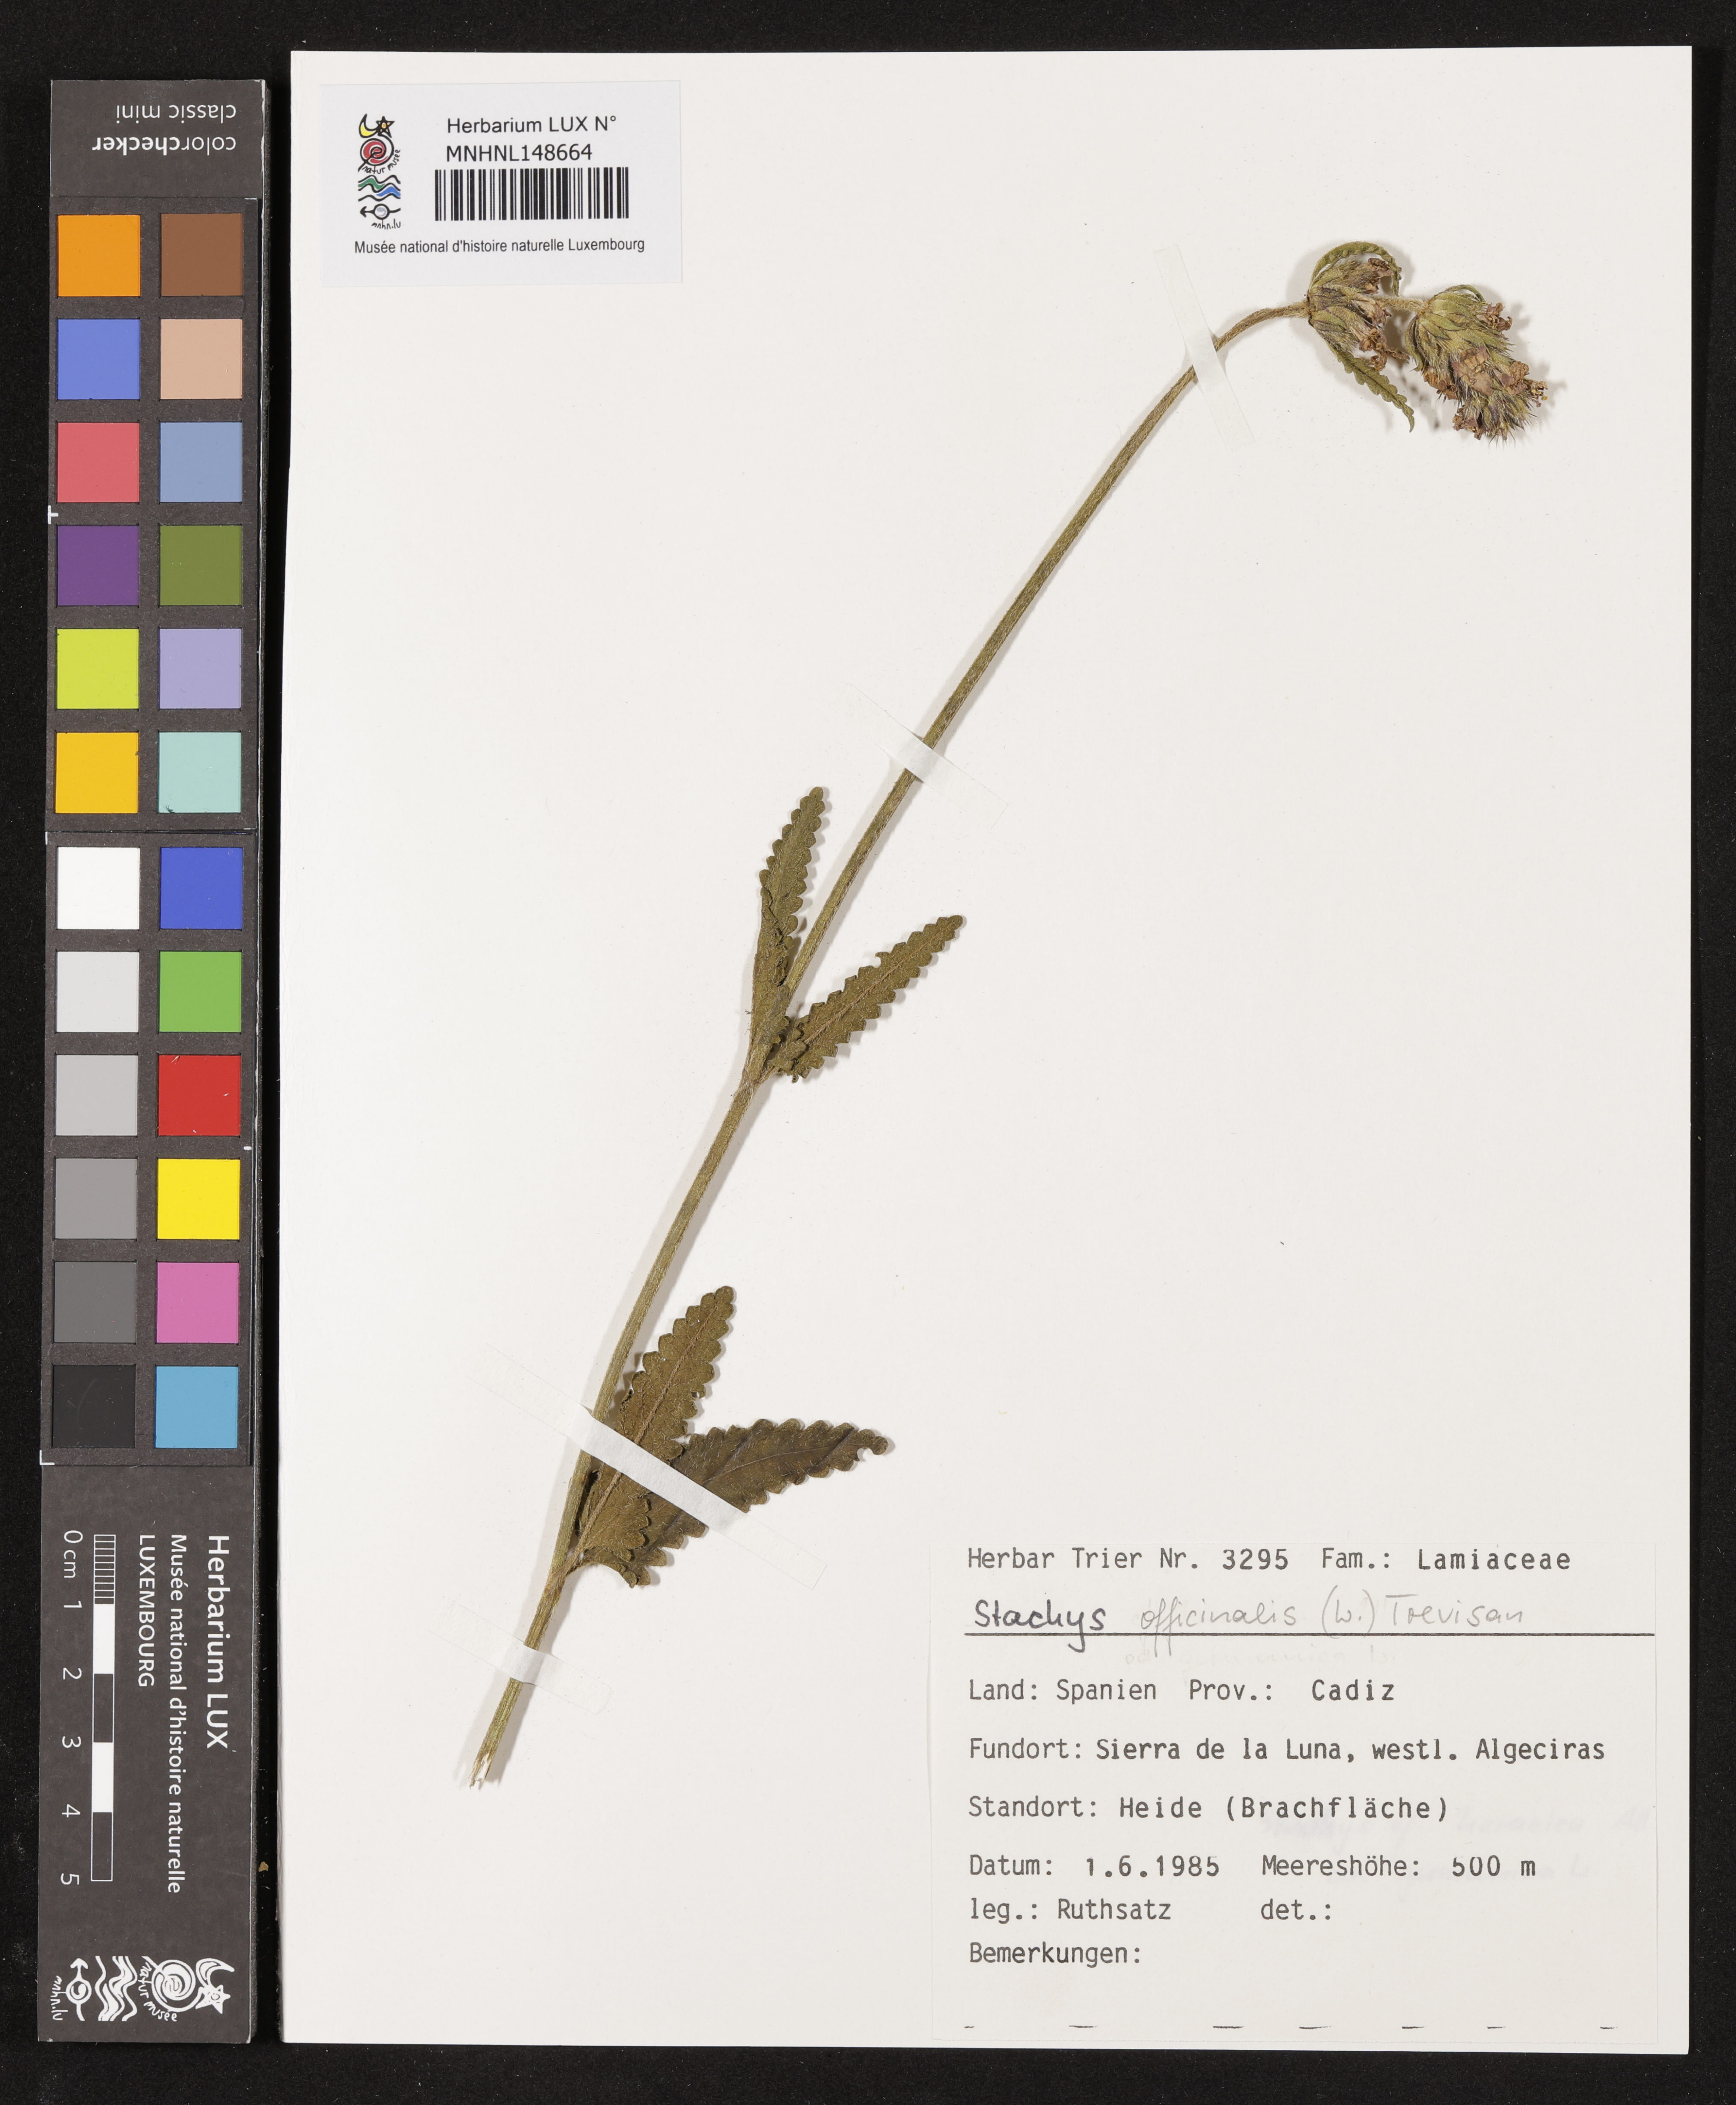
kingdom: Plantae
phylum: Tracheophyta
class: Magnoliopsida
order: Lamiales
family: Lamiaceae
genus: Betonica
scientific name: Betonica officinalis
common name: Bishop's-wort
